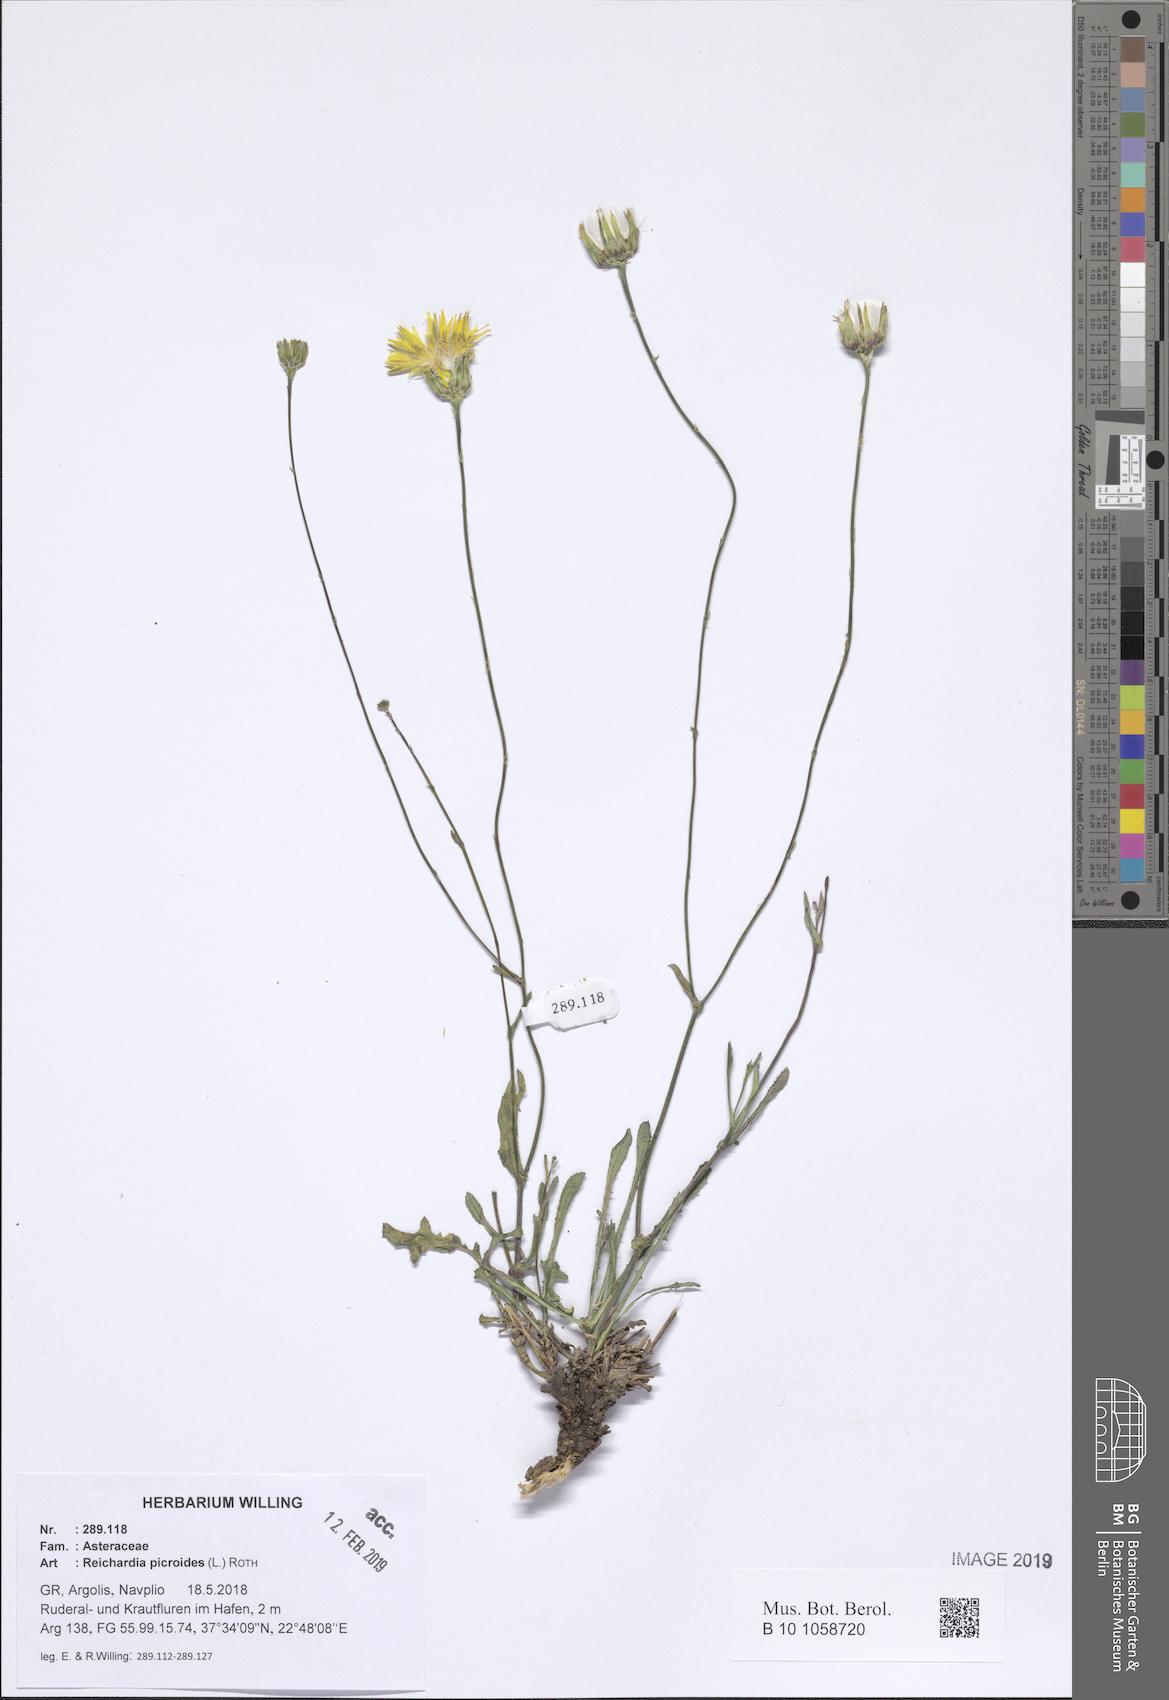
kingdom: Plantae
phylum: Tracheophyta
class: Magnoliopsida
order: Asterales
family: Asteraceae
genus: Reichardia
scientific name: Reichardia picroides
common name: Common brighteyes
